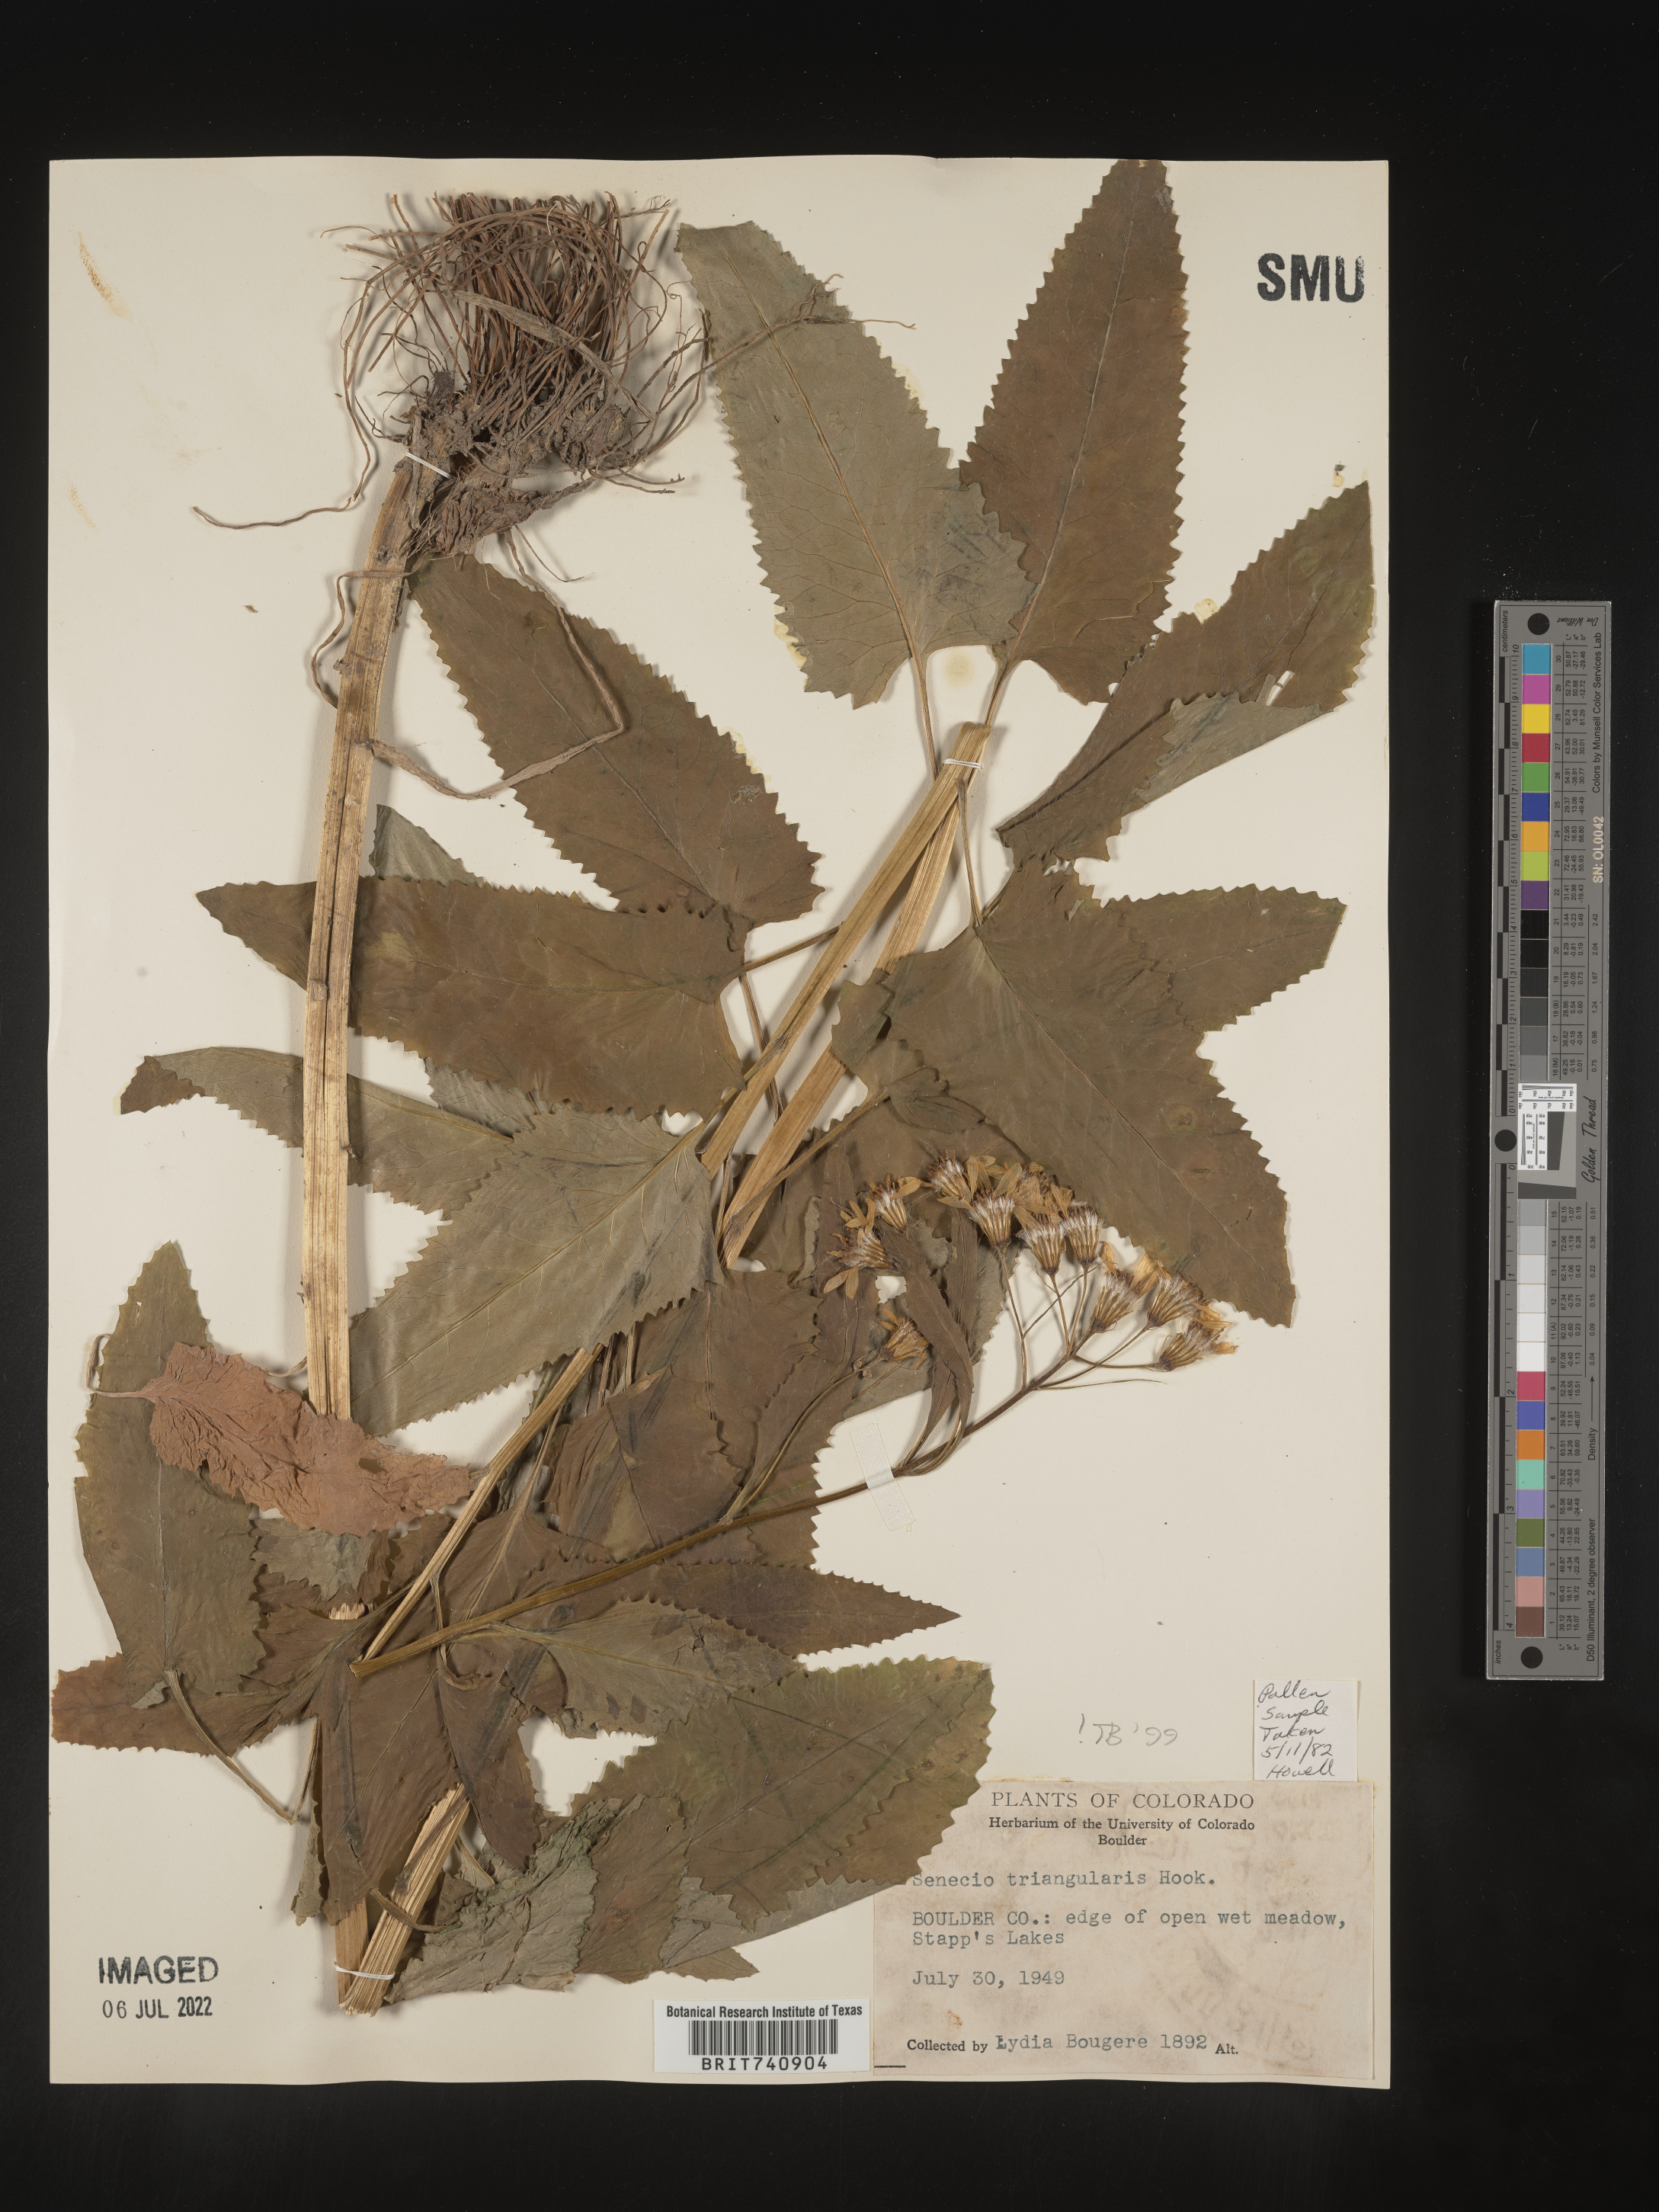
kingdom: Plantae
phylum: Tracheophyta
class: Magnoliopsida
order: Asterales
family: Asteraceae
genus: Senecio
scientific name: Senecio triangularis
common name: Arrowleaf butterweed
